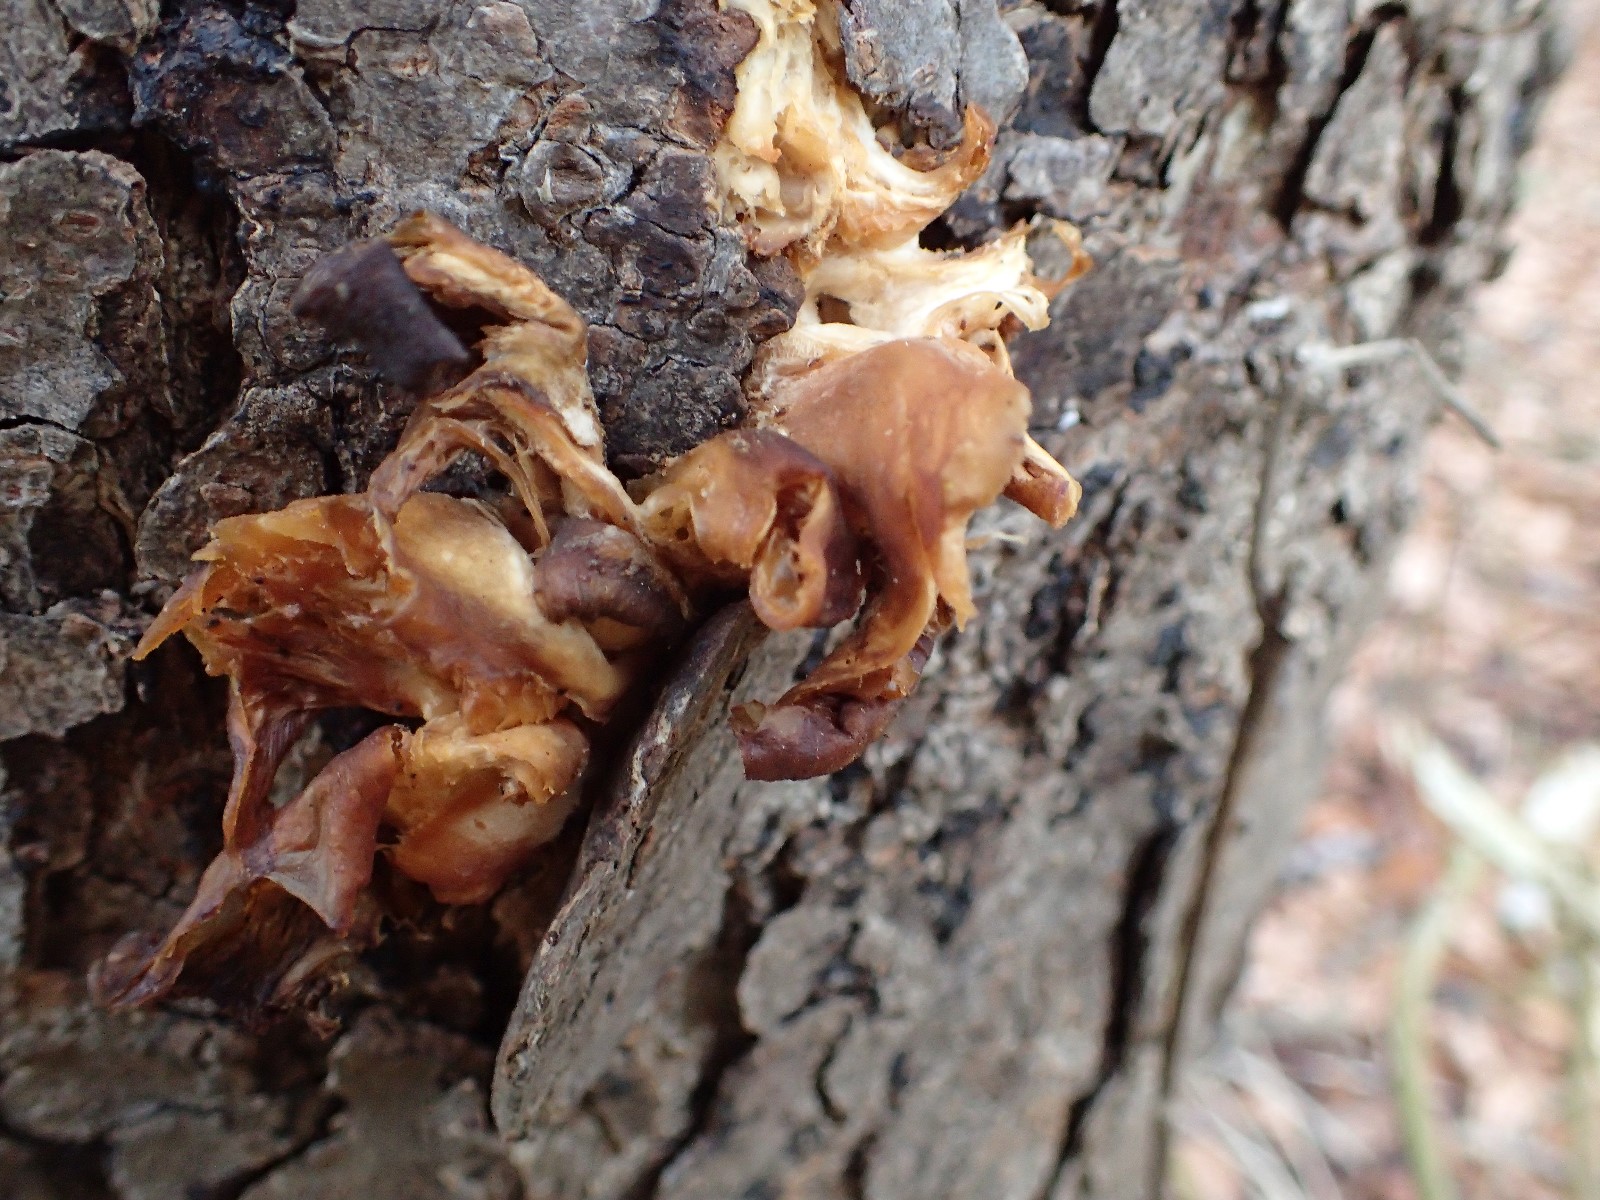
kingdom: Fungi
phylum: Basidiomycota
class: Agaricomycetes
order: Agaricales
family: Sarcomyxaceae
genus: Sarcomyxa
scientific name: Sarcomyxa serotina
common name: gummihat
